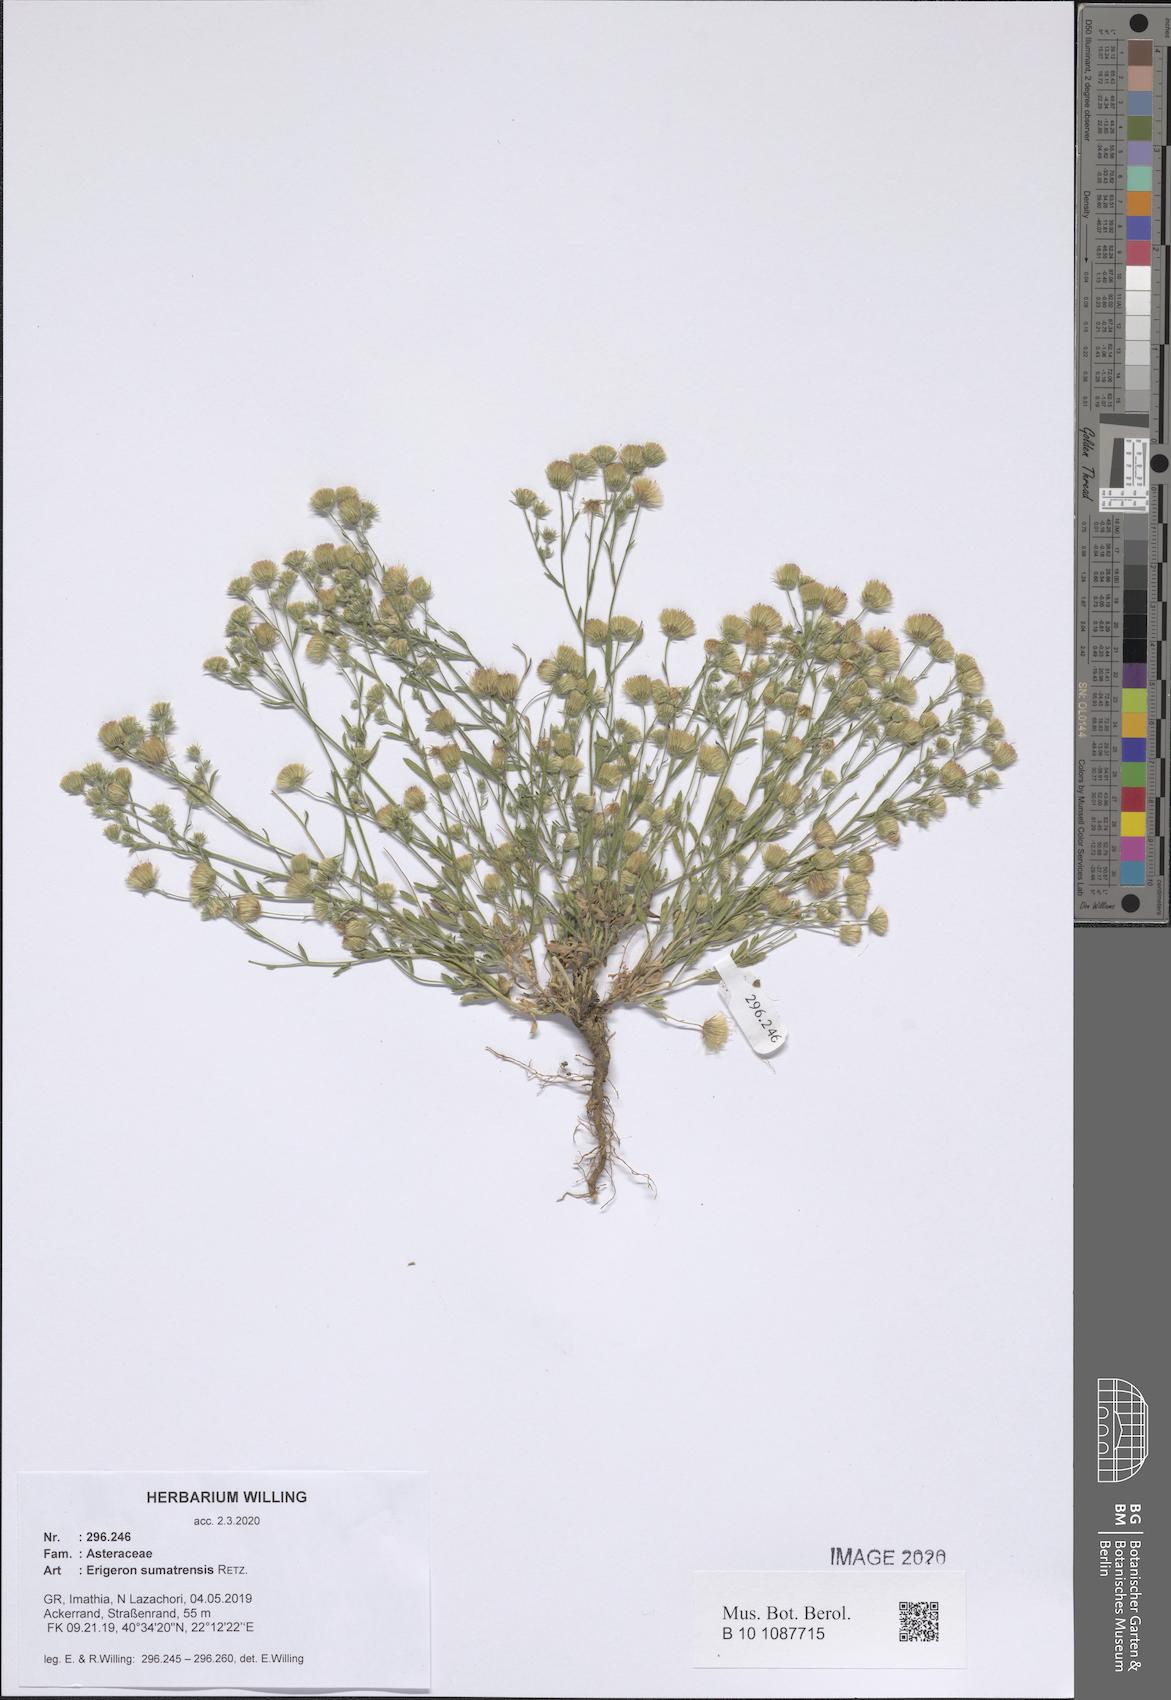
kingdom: Plantae
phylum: Tracheophyta
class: Magnoliopsida
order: Asterales
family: Asteraceae
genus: Erigeron
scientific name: Erigeron sumatrensis
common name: Daisy
